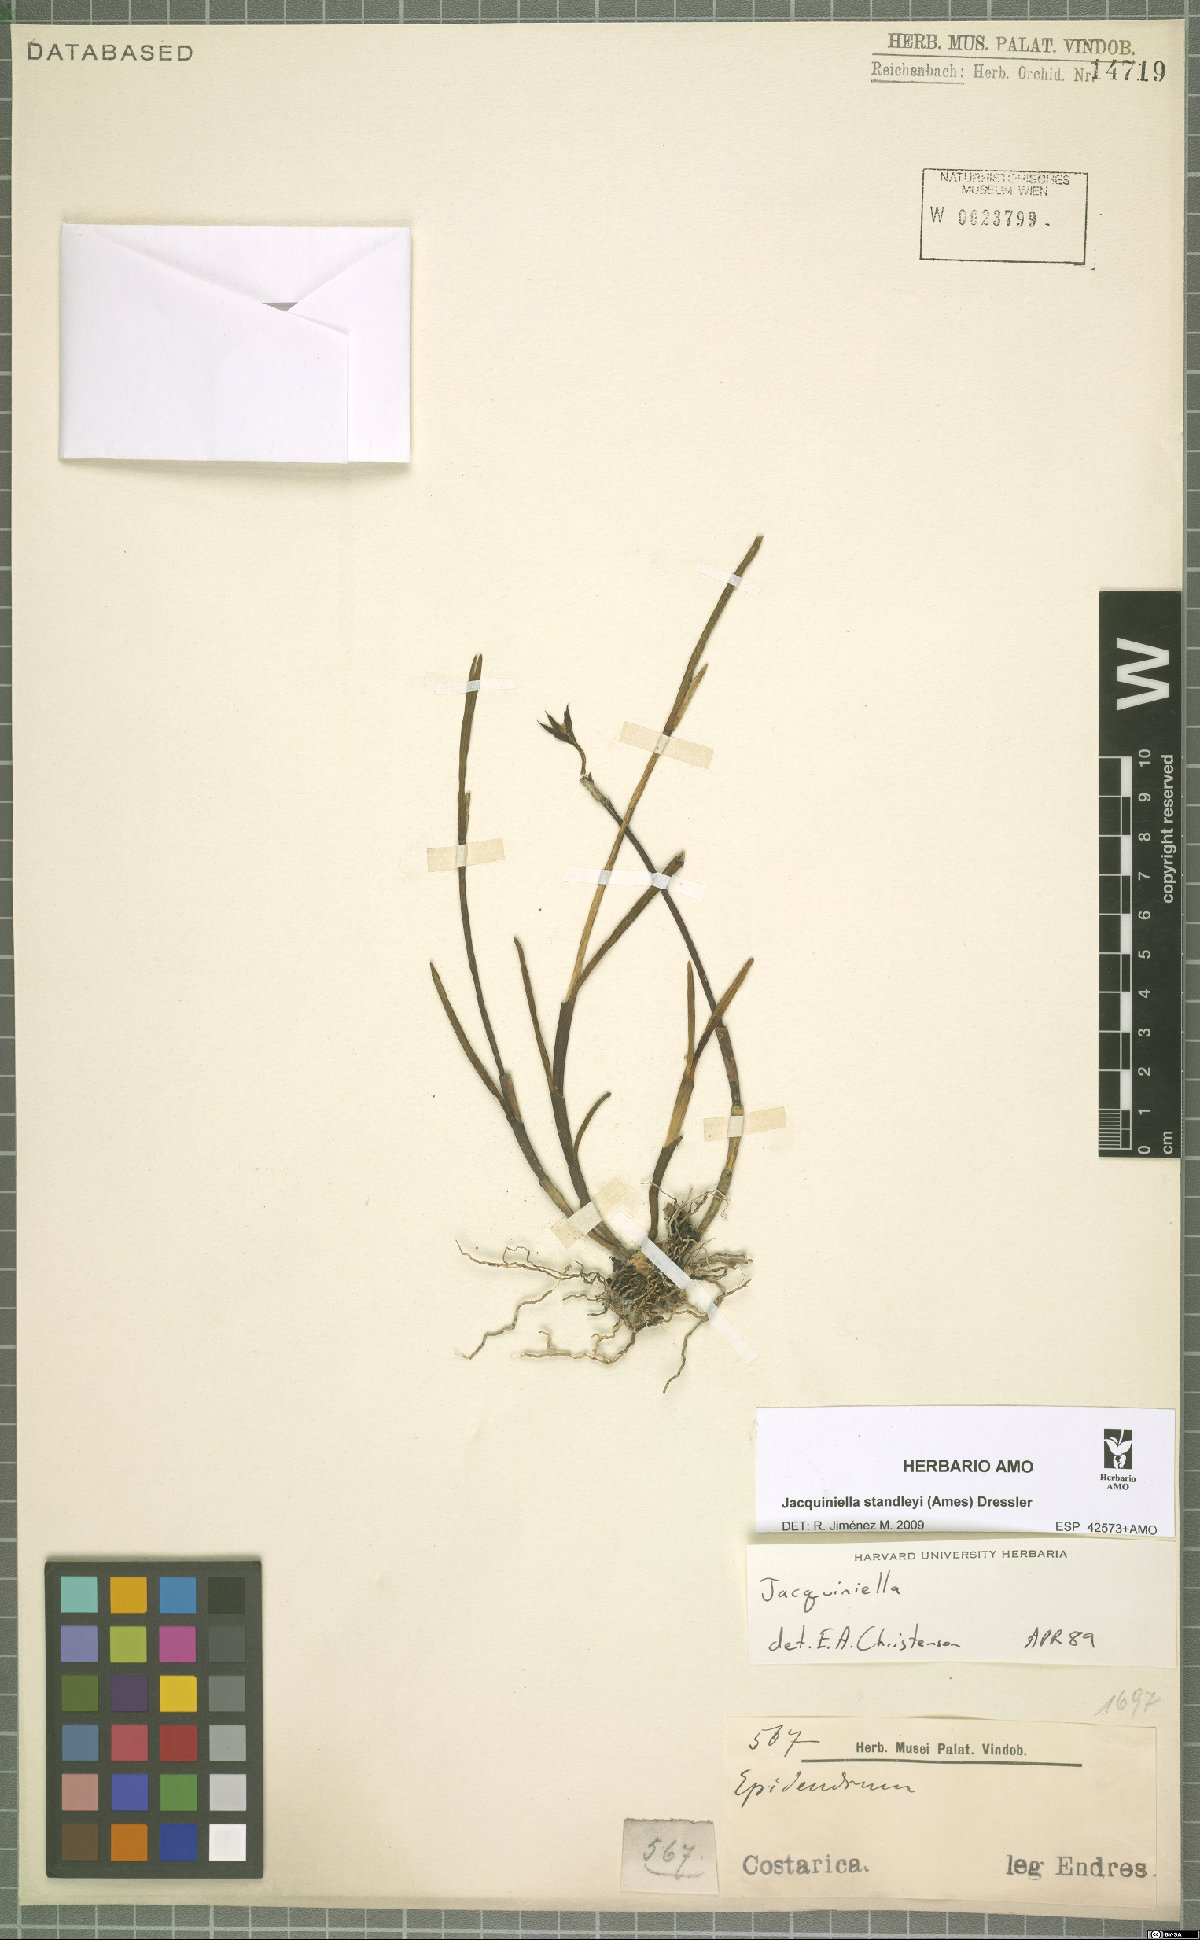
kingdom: Plantae
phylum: Tracheophyta
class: Liliopsida
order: Asparagales
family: Orchidaceae
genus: Jacquiniella
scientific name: Jacquiniella standleyi
